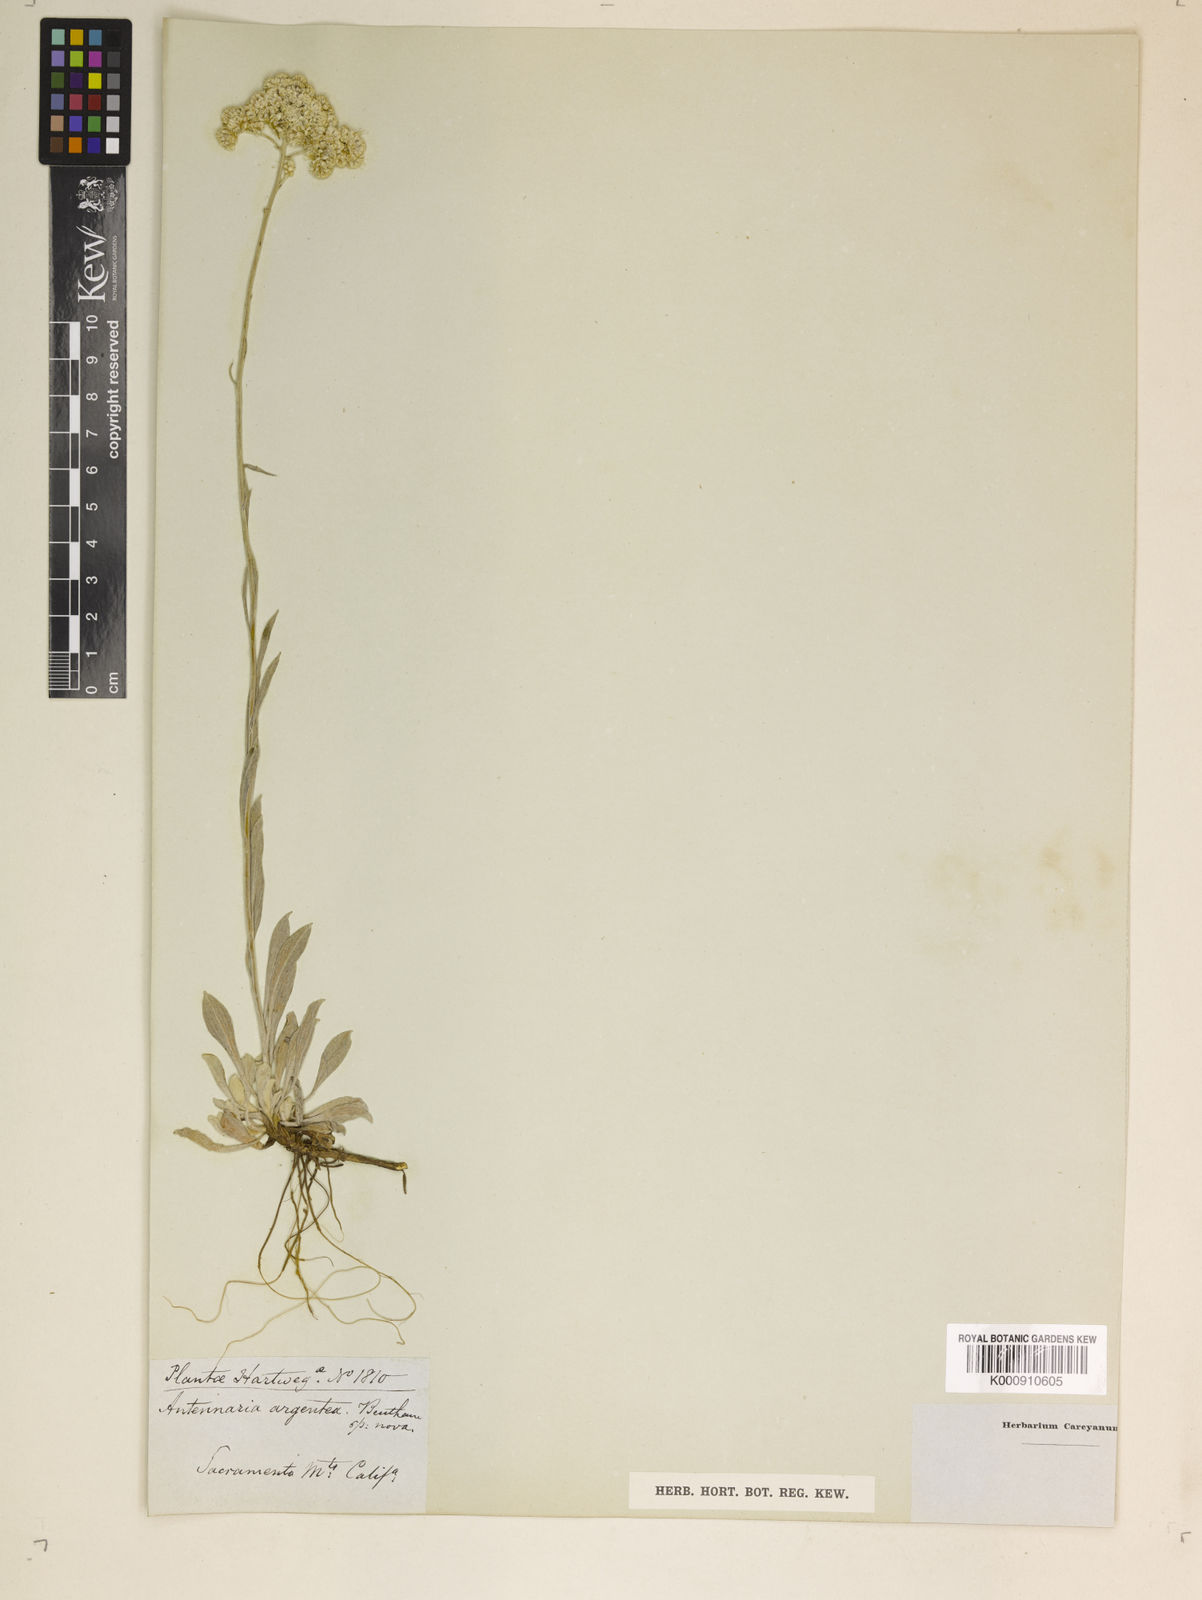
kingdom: Plantae
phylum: Tracheophyta
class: Magnoliopsida
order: Asterales
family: Asteraceae
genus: Antennaria
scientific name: Antennaria argentea
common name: Silver pussytoes
